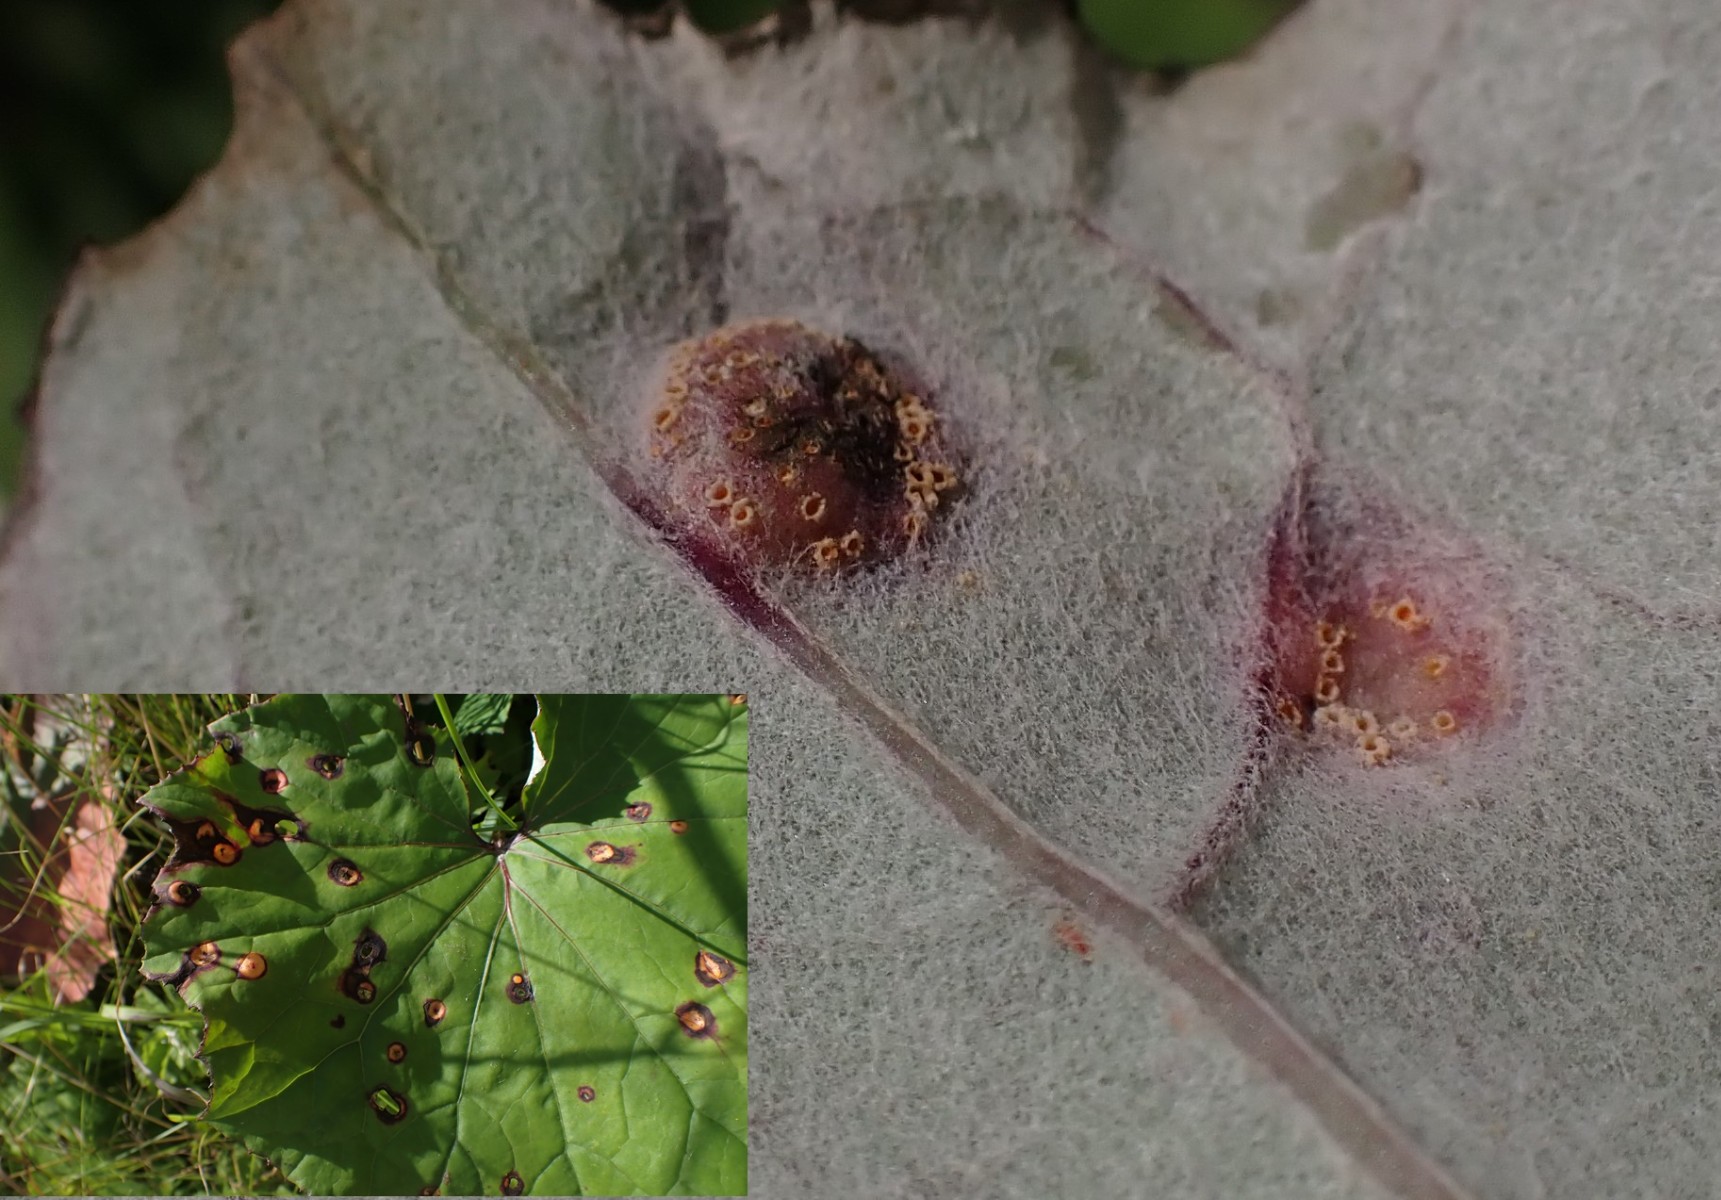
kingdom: Fungi
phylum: Basidiomycota
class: Pucciniomycetes
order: Pucciniales
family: Pucciniaceae
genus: Puccinia
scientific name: Puccinia poarum
